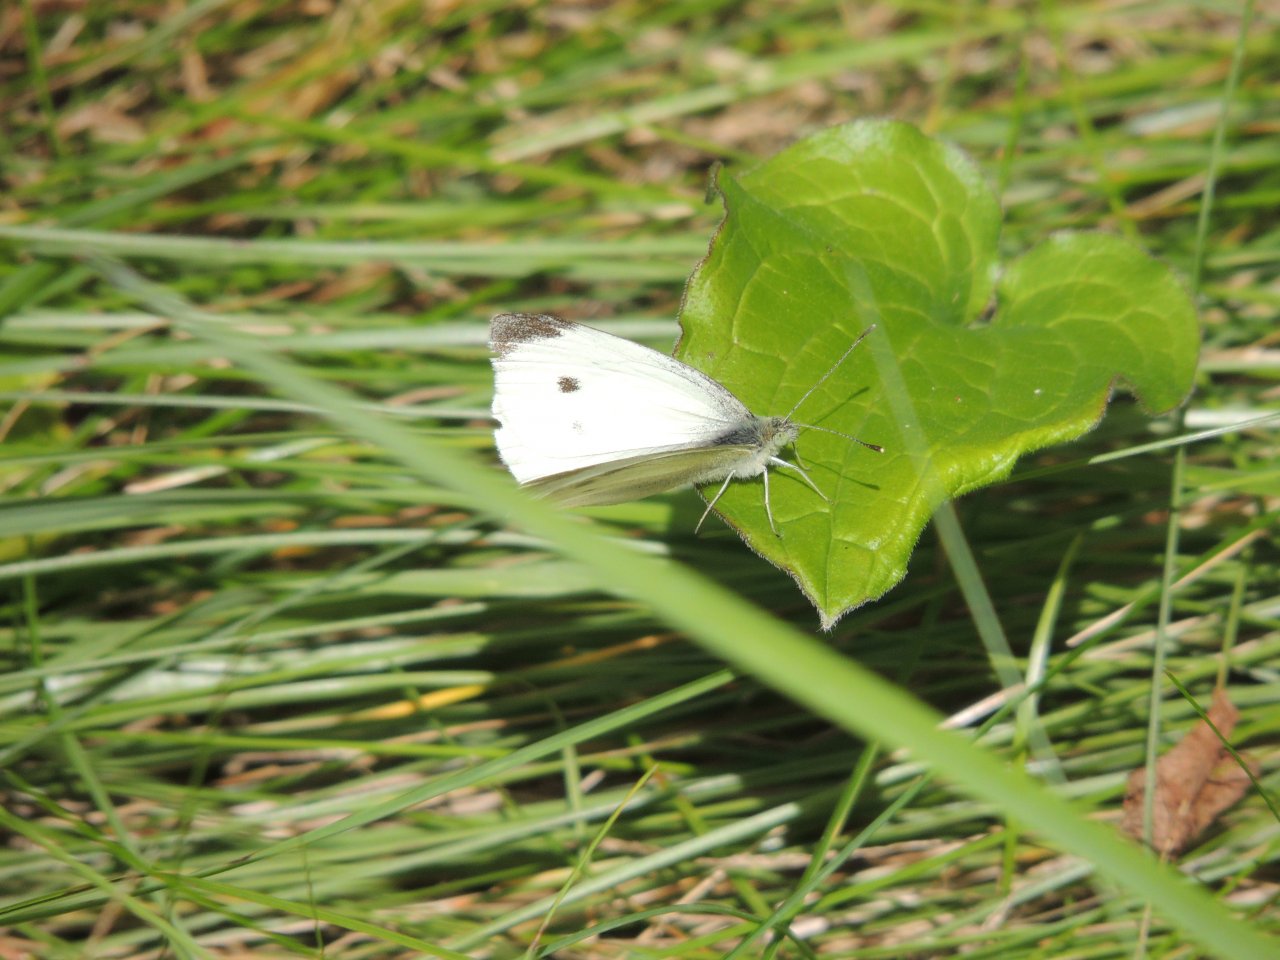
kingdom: Animalia
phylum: Arthropoda
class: Insecta
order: Lepidoptera
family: Pieridae
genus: Pieris
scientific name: Pieris rapae
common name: Cabbage White
